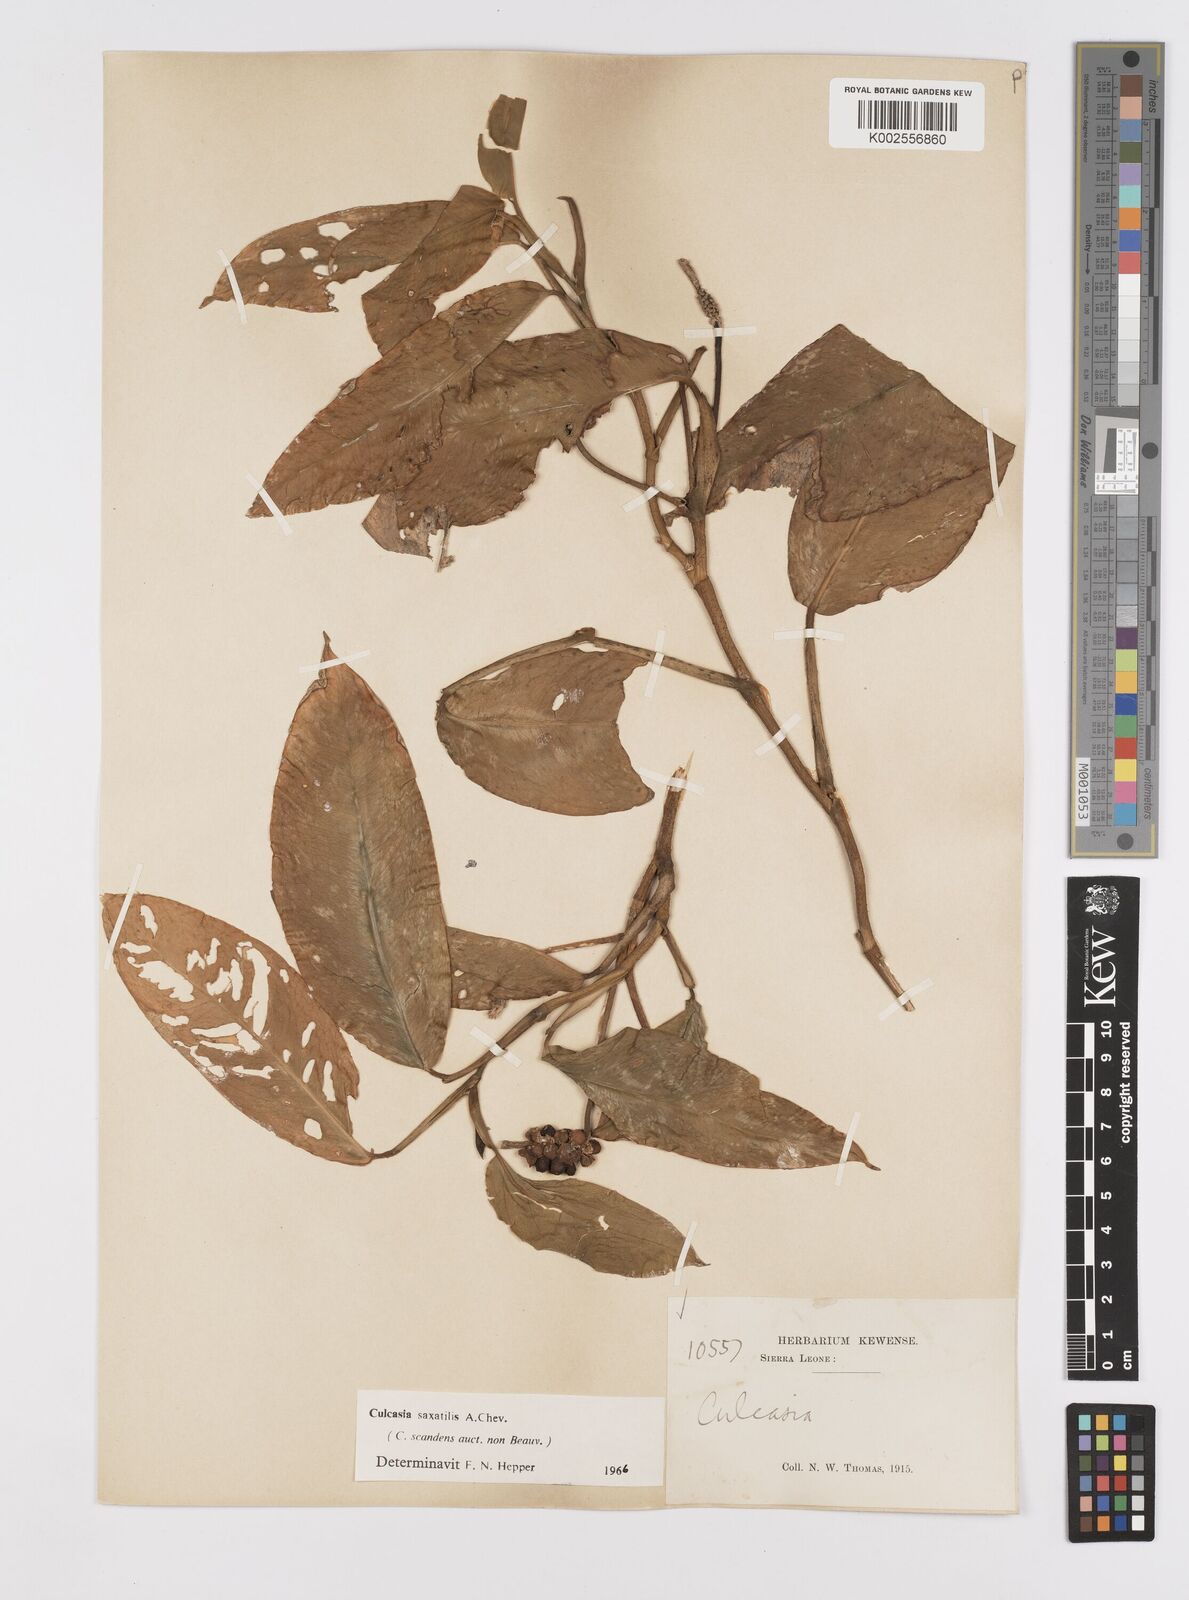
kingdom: Plantae
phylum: Tracheophyta
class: Liliopsida
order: Alismatales
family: Araceae
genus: Culcasia
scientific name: Culcasia scandens
